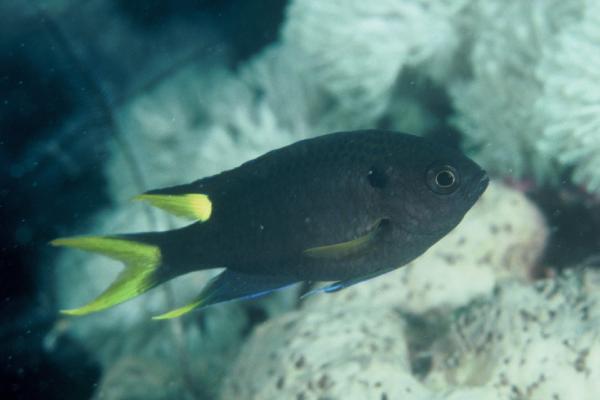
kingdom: Animalia
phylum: Chordata
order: Perciformes
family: Pomacentridae
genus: Neopomacentrus
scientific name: Neopomacentrus cyanomos
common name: Regal demoiselle
